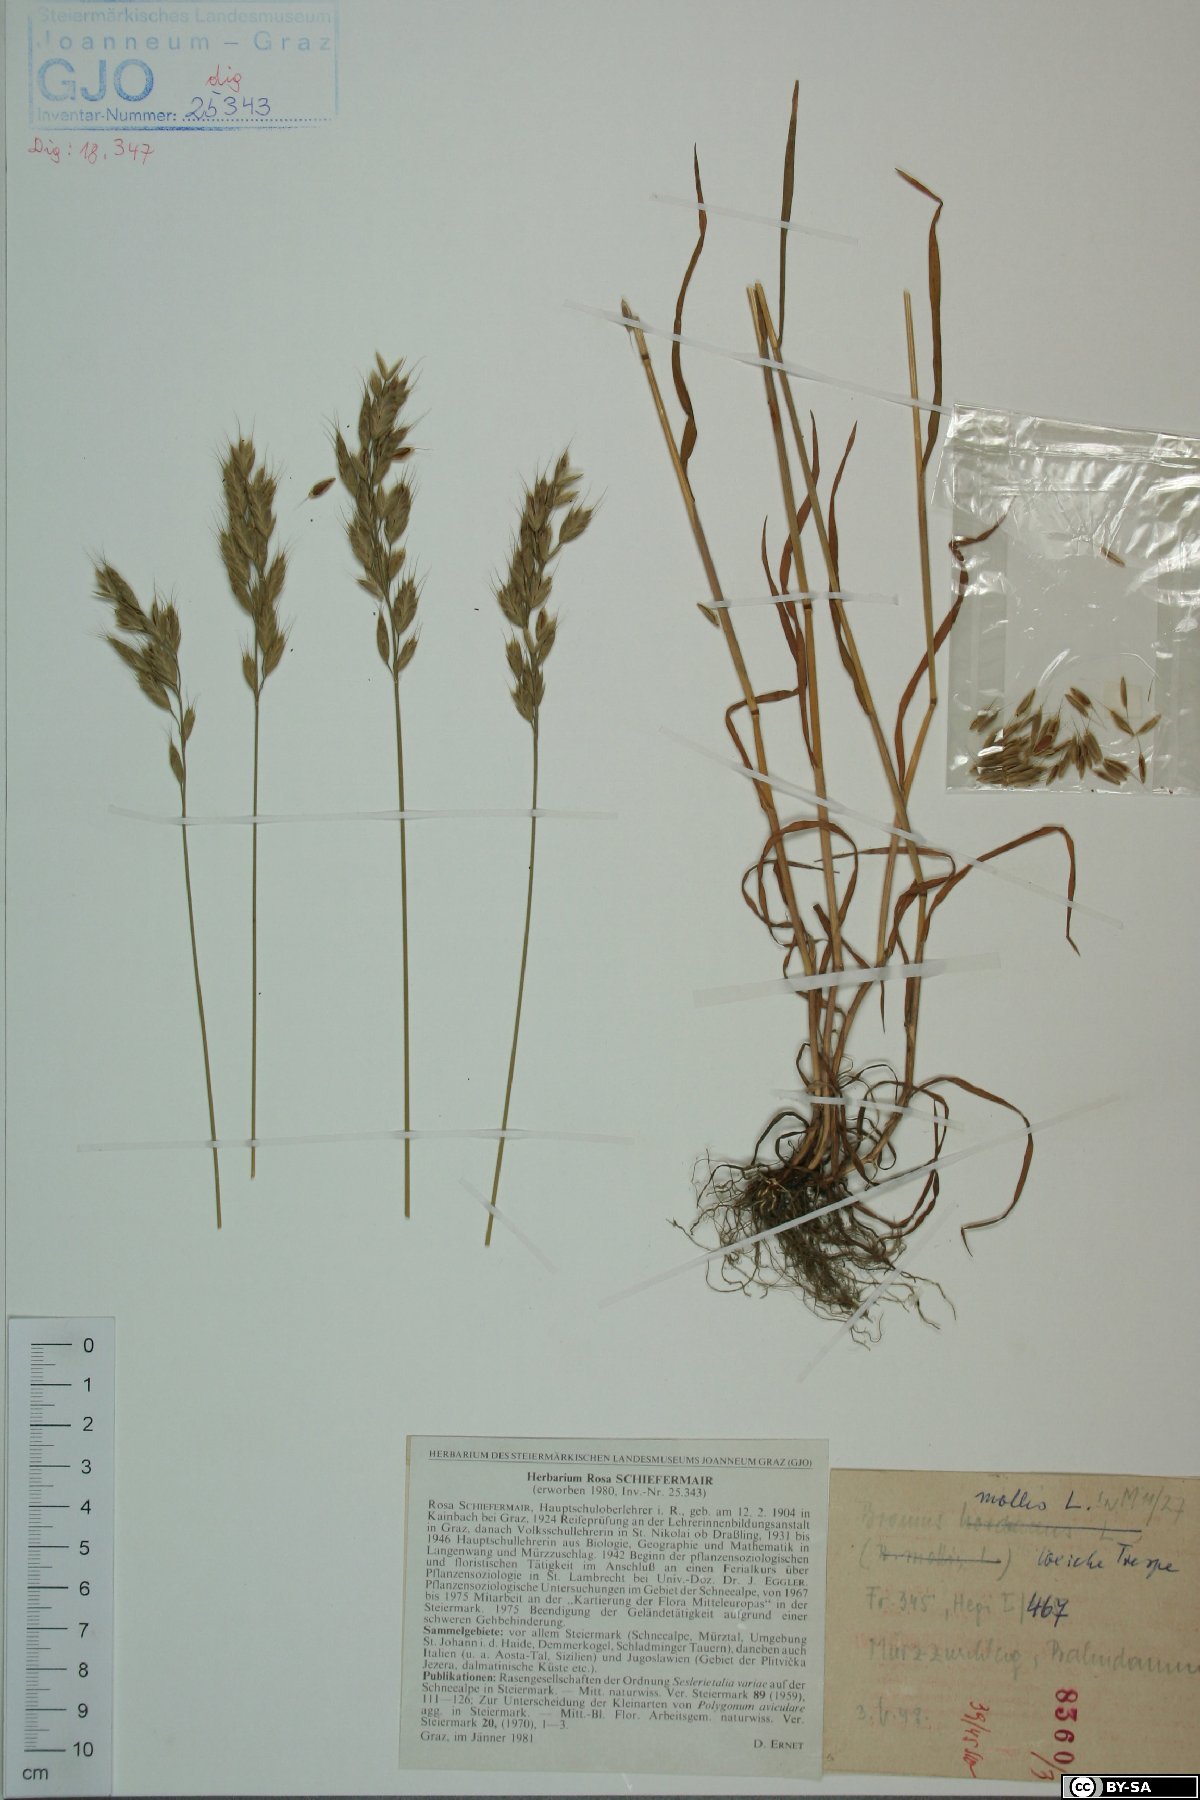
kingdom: Plantae
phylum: Tracheophyta
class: Liliopsida
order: Poales
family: Poaceae
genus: Bromus
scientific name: Bromus hordeaceus
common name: Soft brome
